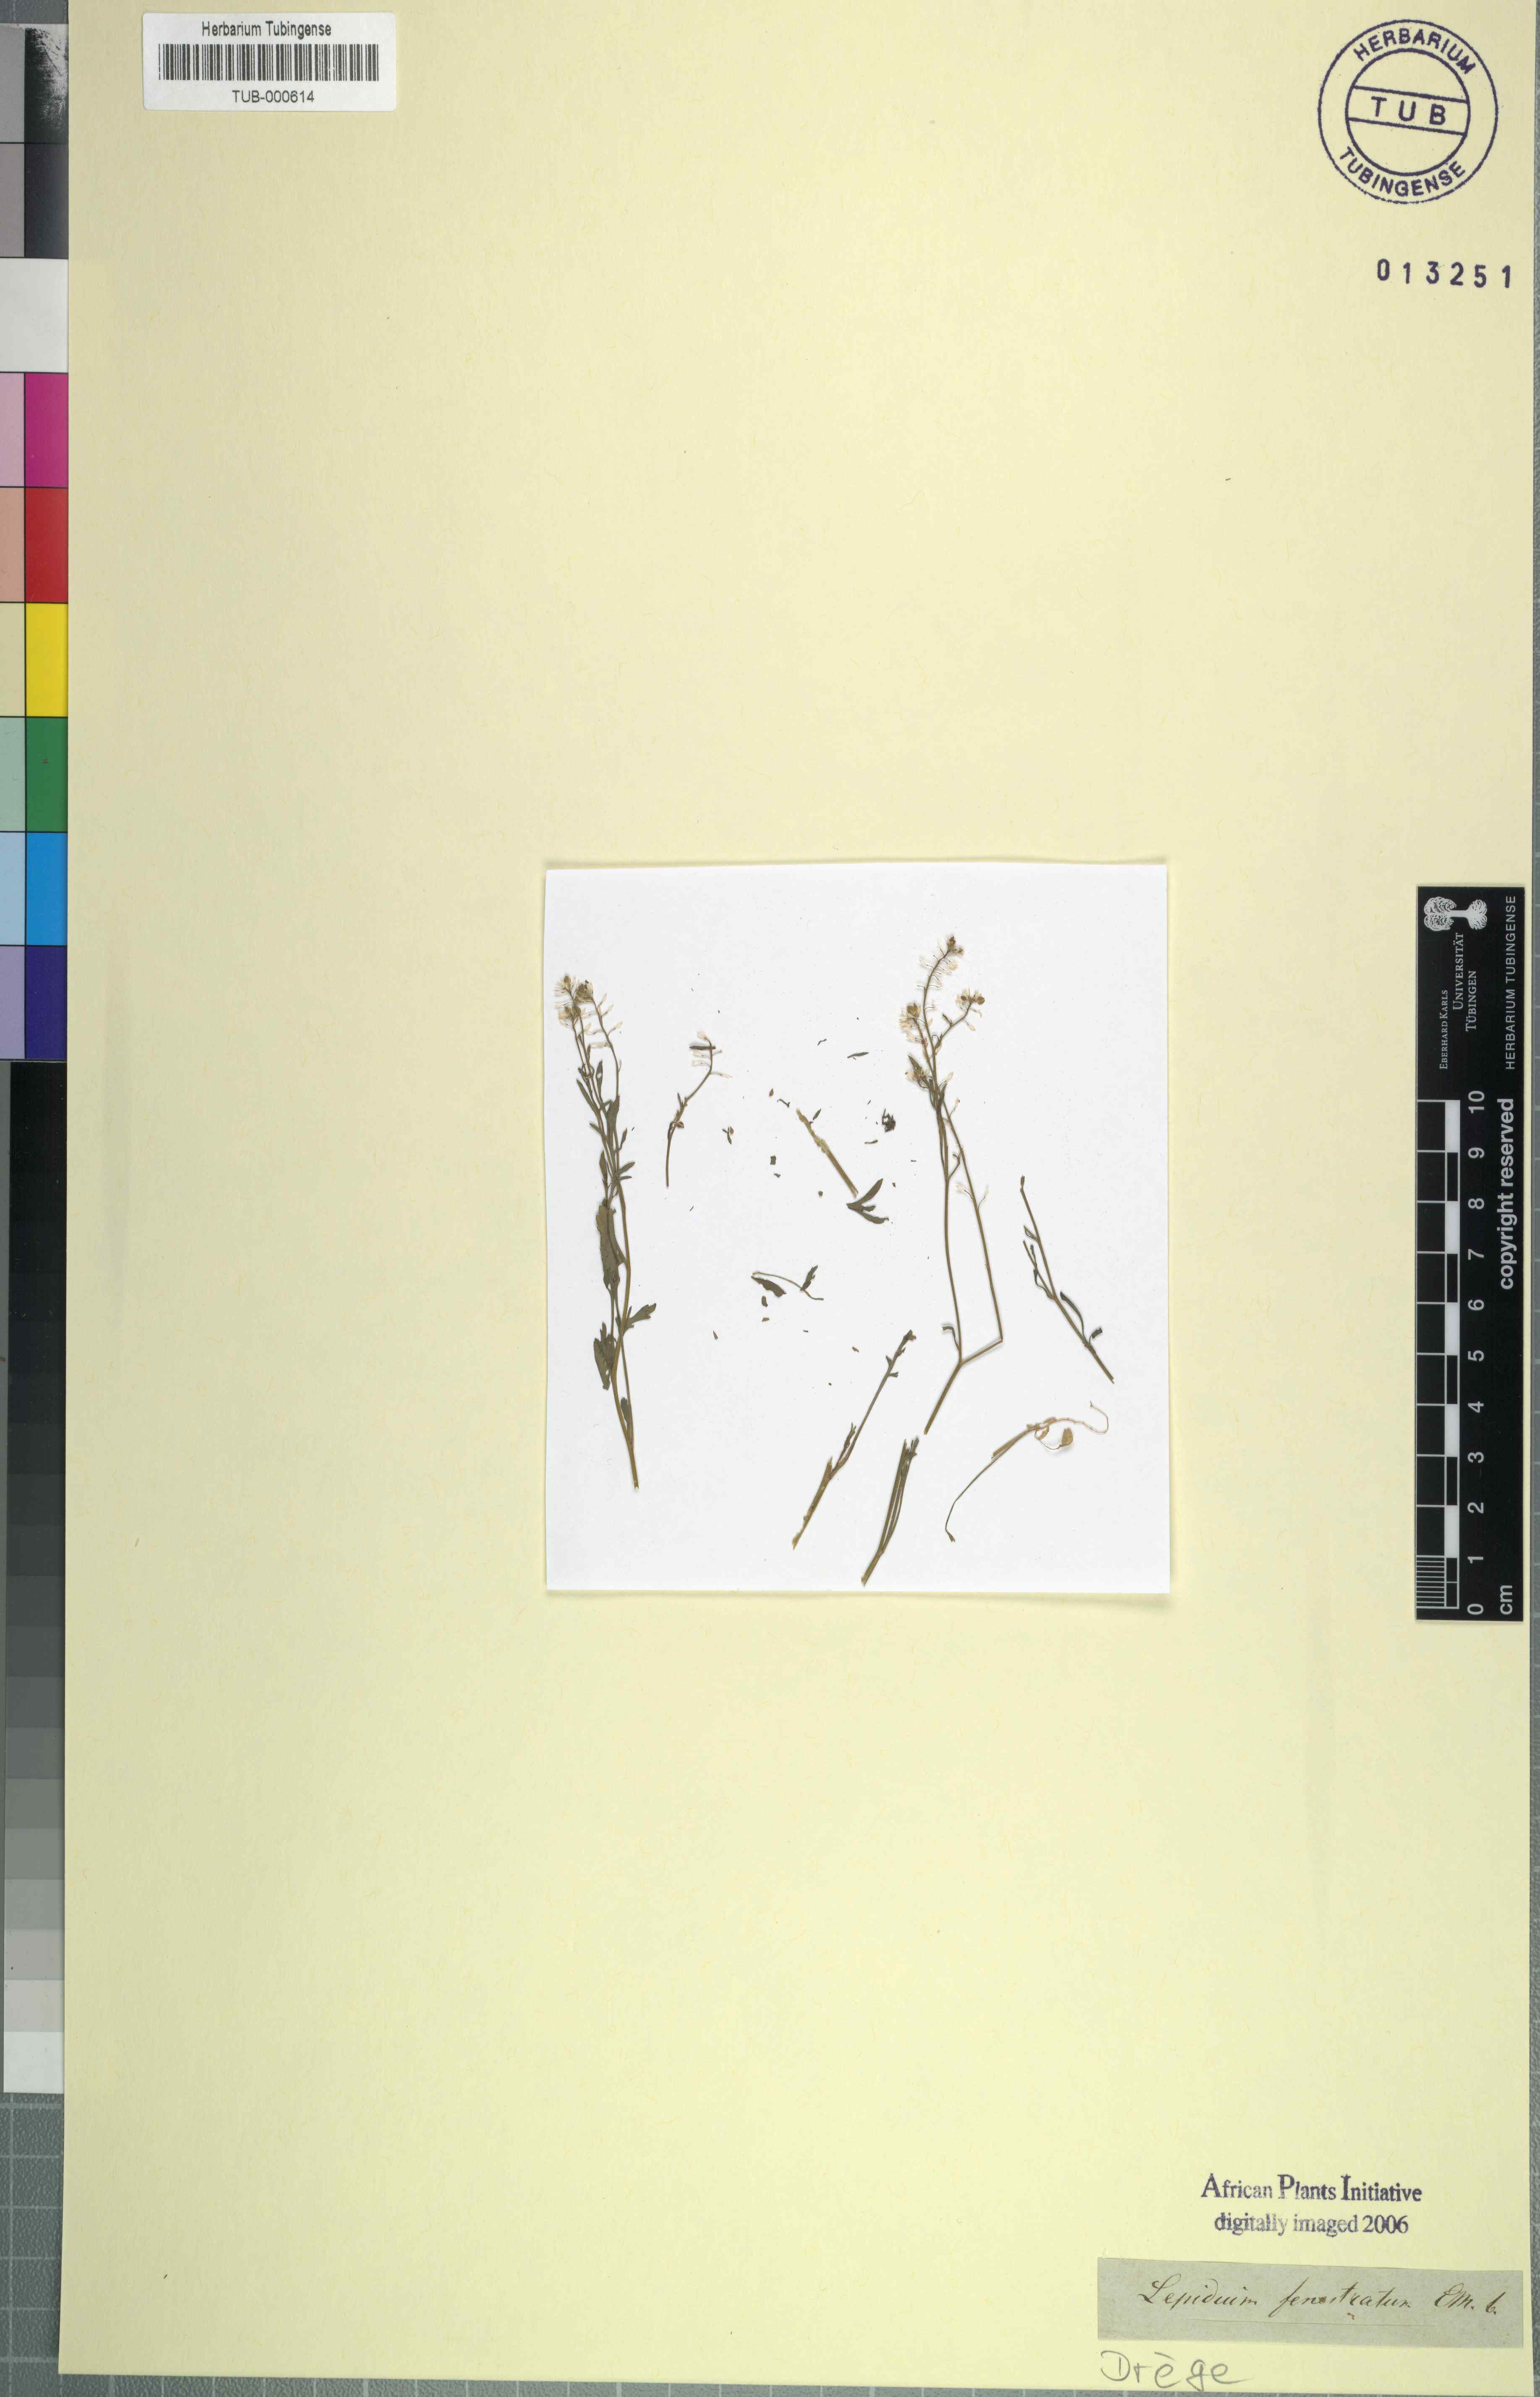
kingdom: Plantae
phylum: Tracheophyta
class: Magnoliopsida
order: Brassicales
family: Brassicaceae
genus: Lepidium
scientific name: Lepidium desertorum
